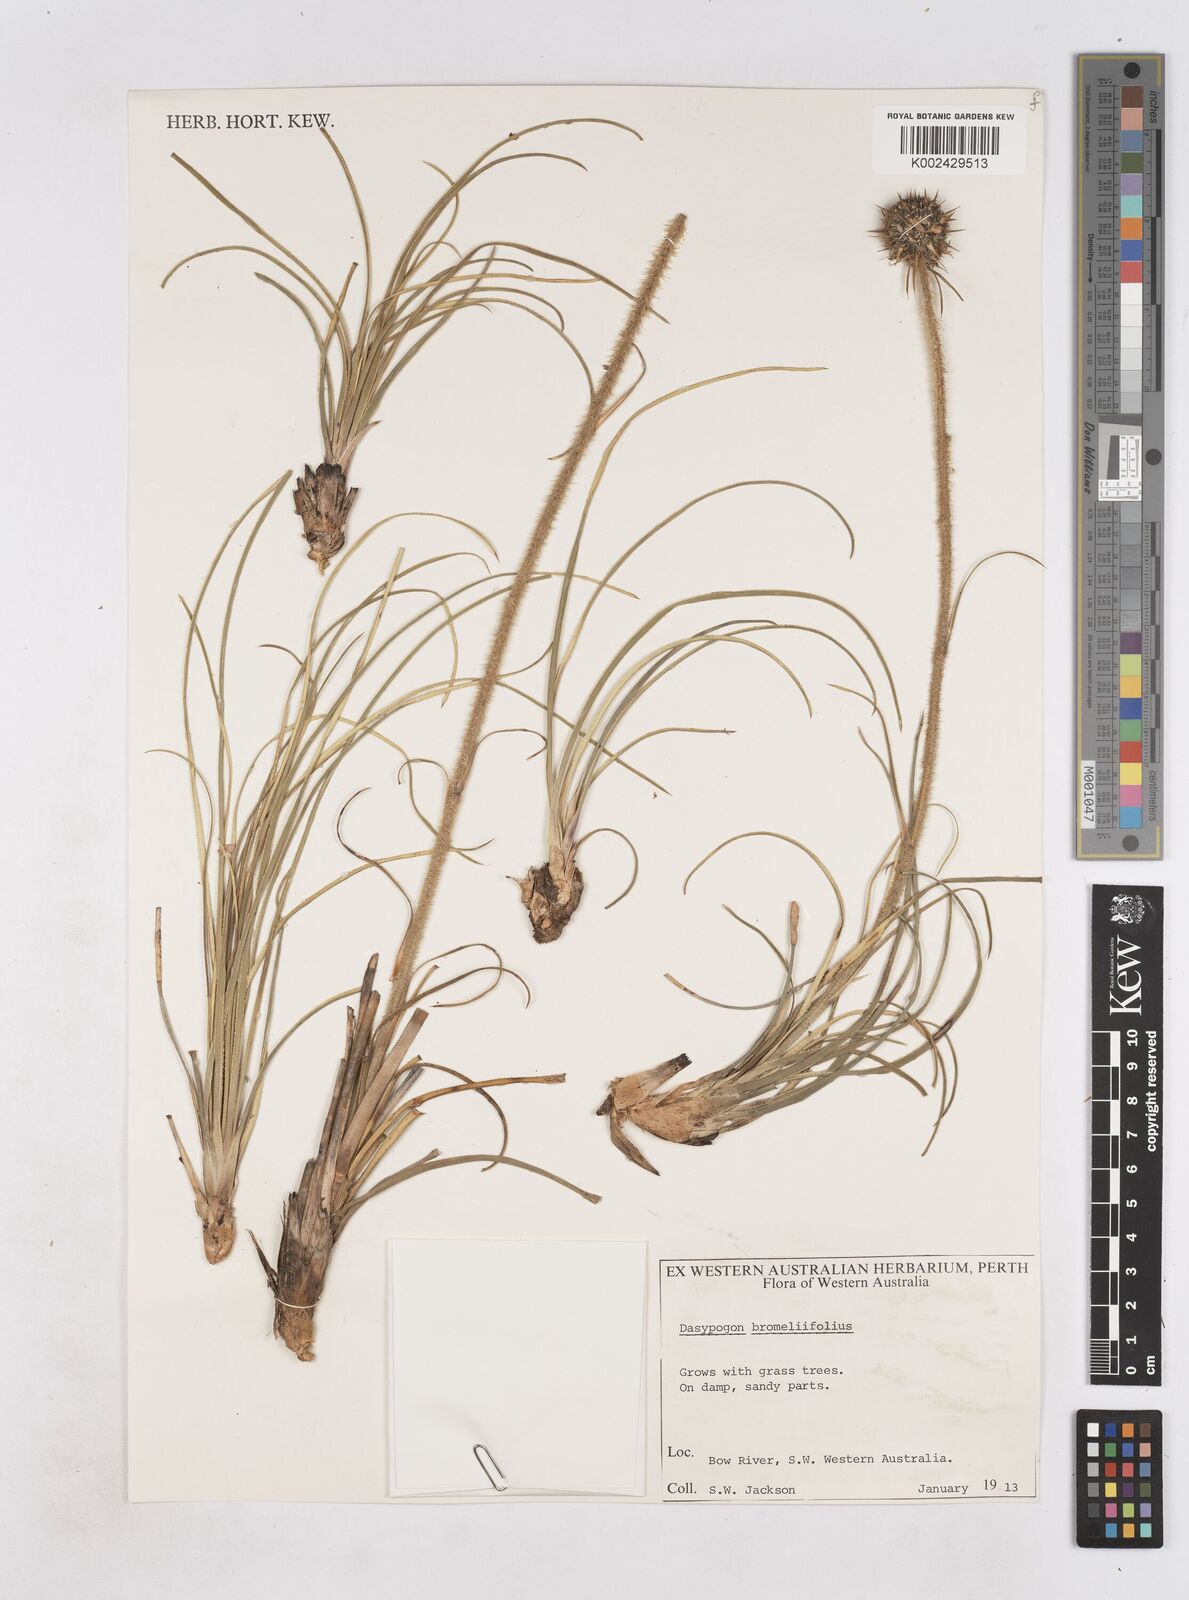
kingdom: Plantae
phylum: Tracheophyta
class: Liliopsida
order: Arecales
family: Dasypogonaceae
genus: Dasypogon
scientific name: Dasypogon bromeliifolius
